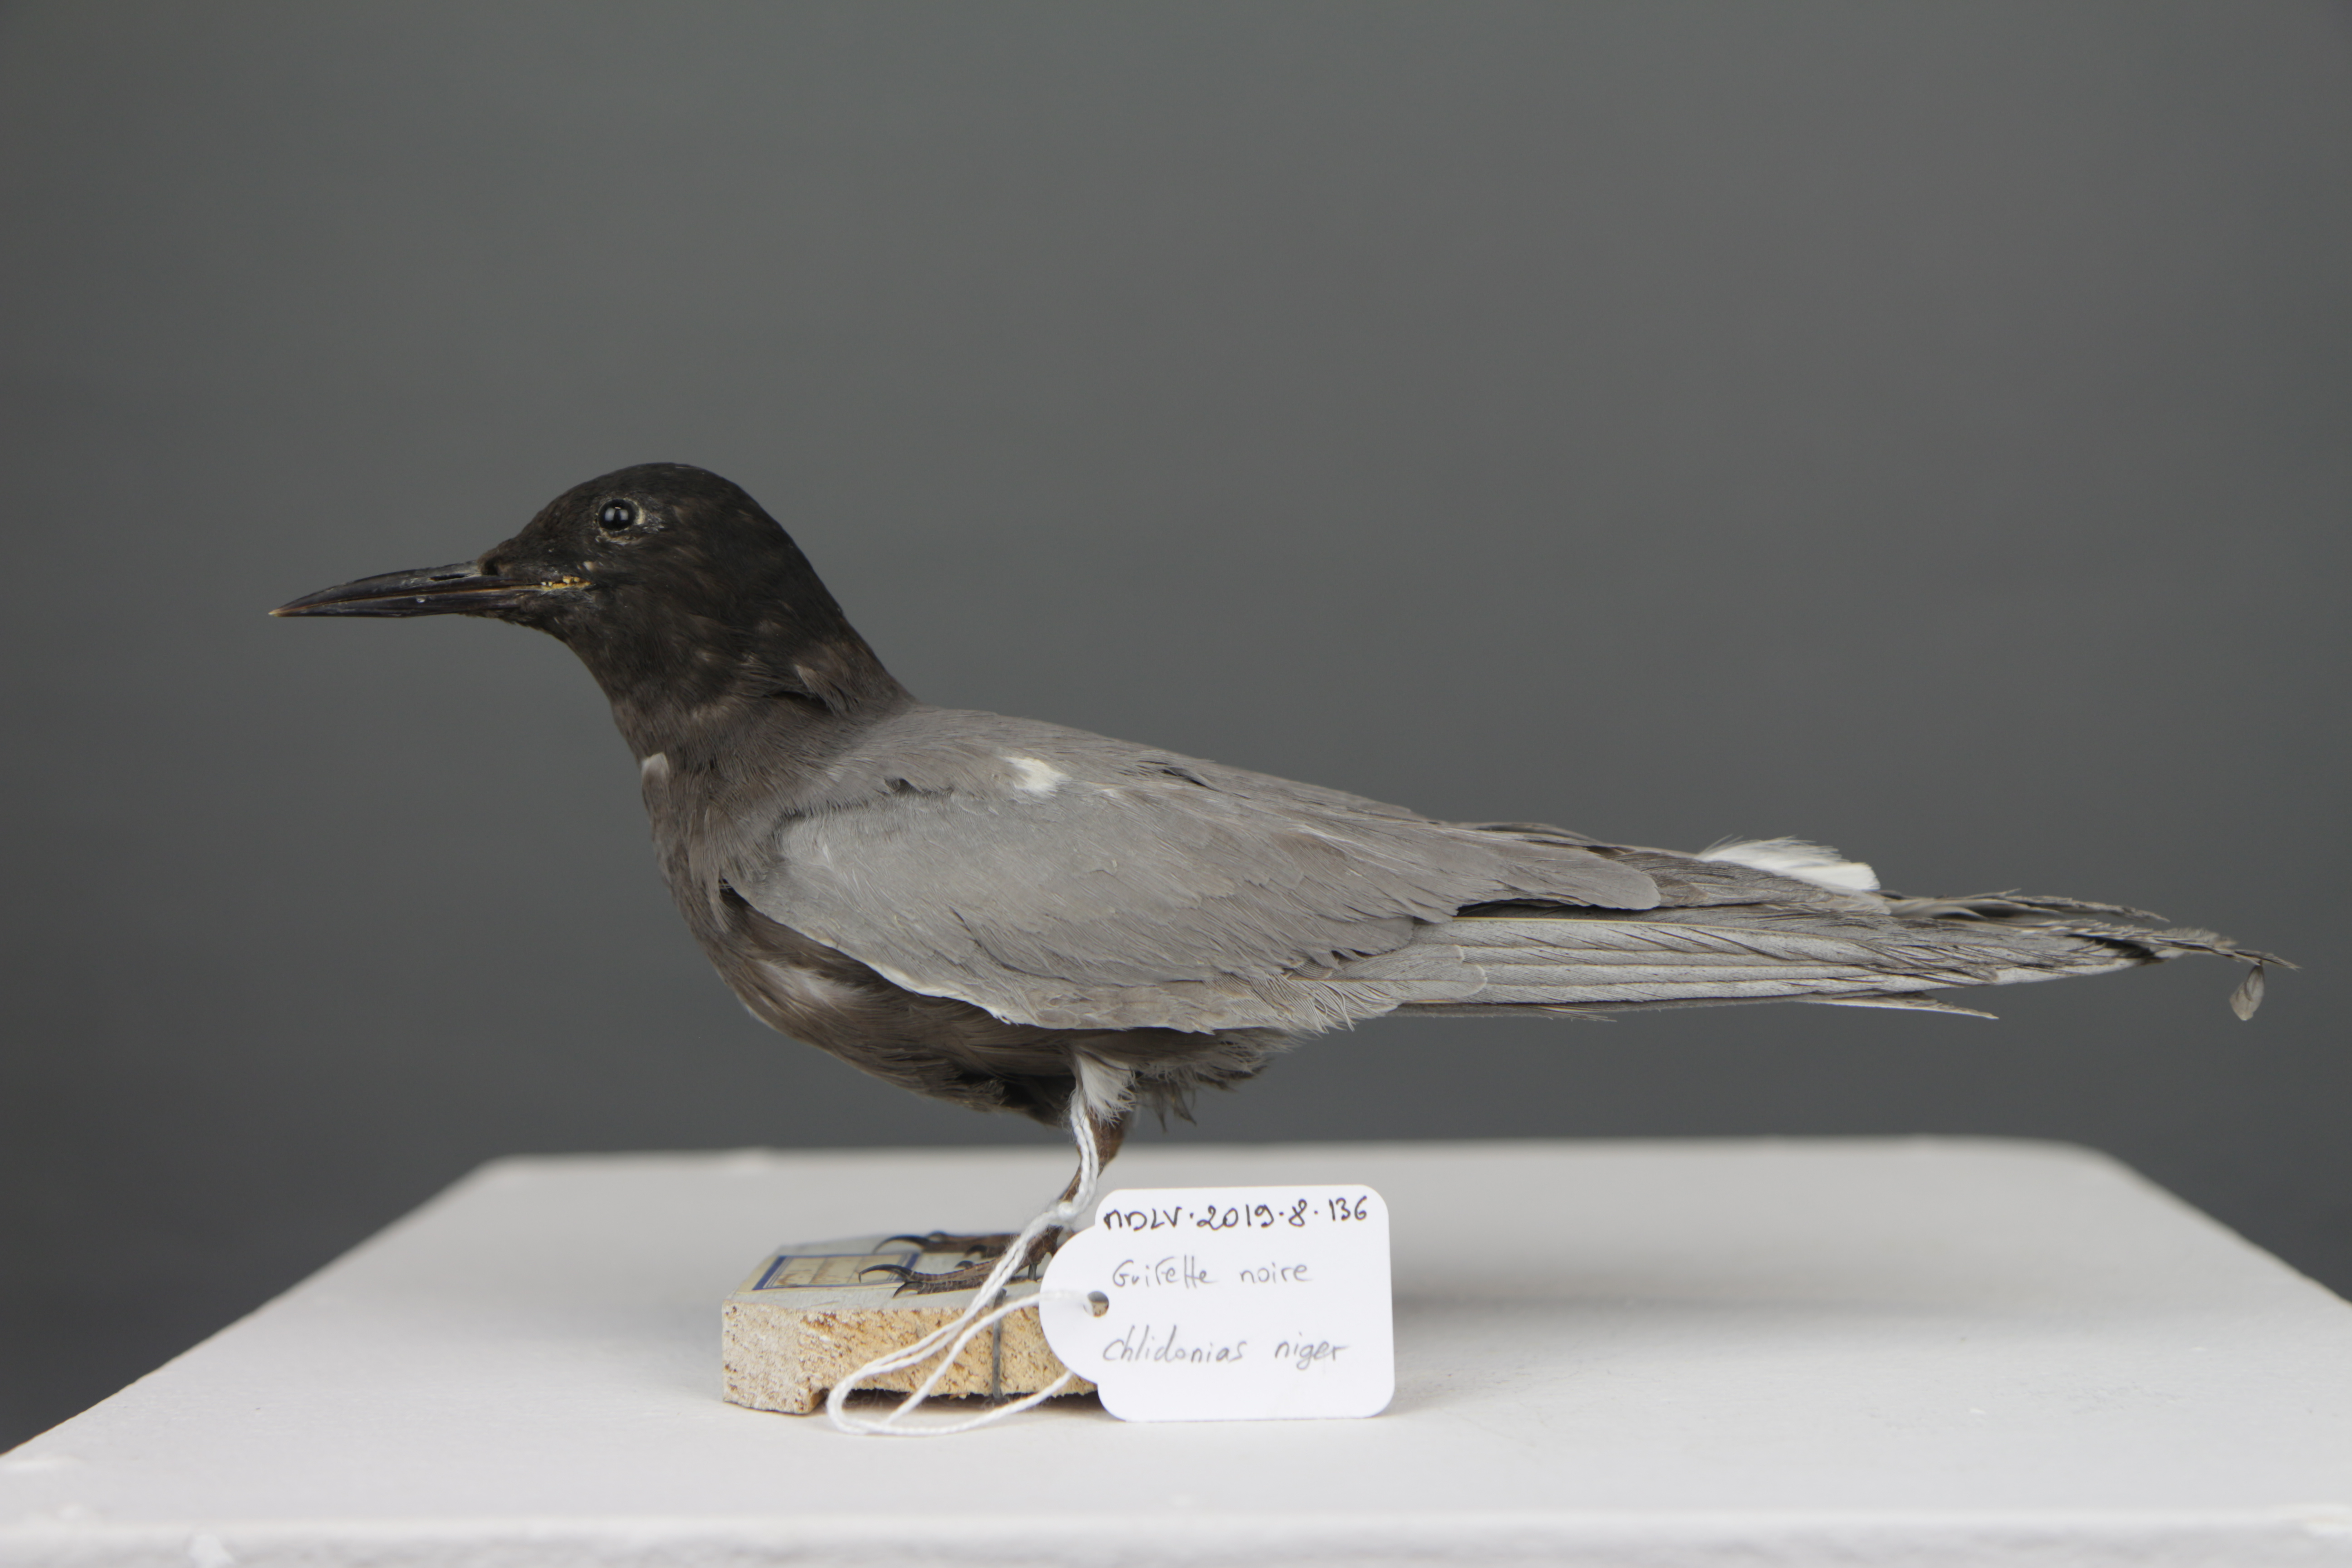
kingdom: Animalia
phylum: Chordata
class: Aves
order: Charadriiformes
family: Laridae
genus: Chlidonias
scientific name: Chlidonias niger
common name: Black tern
